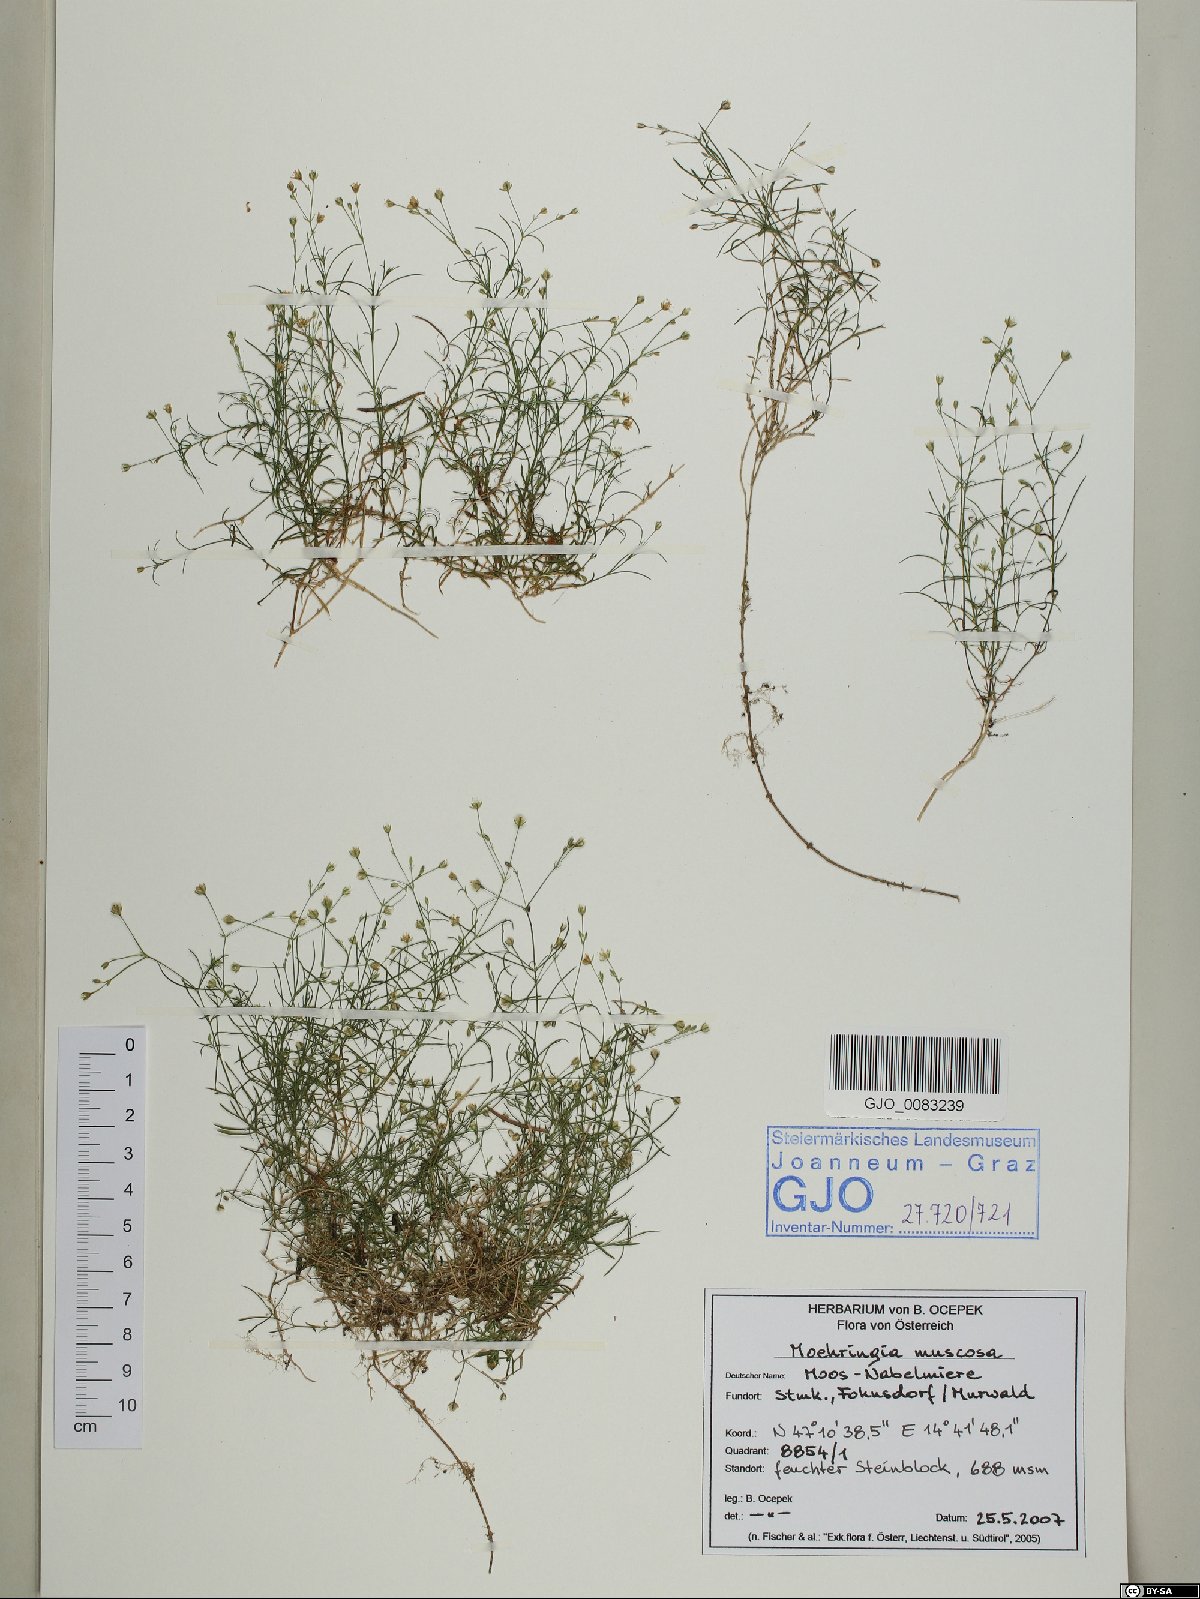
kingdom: Plantae
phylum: Tracheophyta
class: Magnoliopsida
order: Caryophyllales
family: Caryophyllaceae
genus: Moehringia
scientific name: Moehringia muscosa
